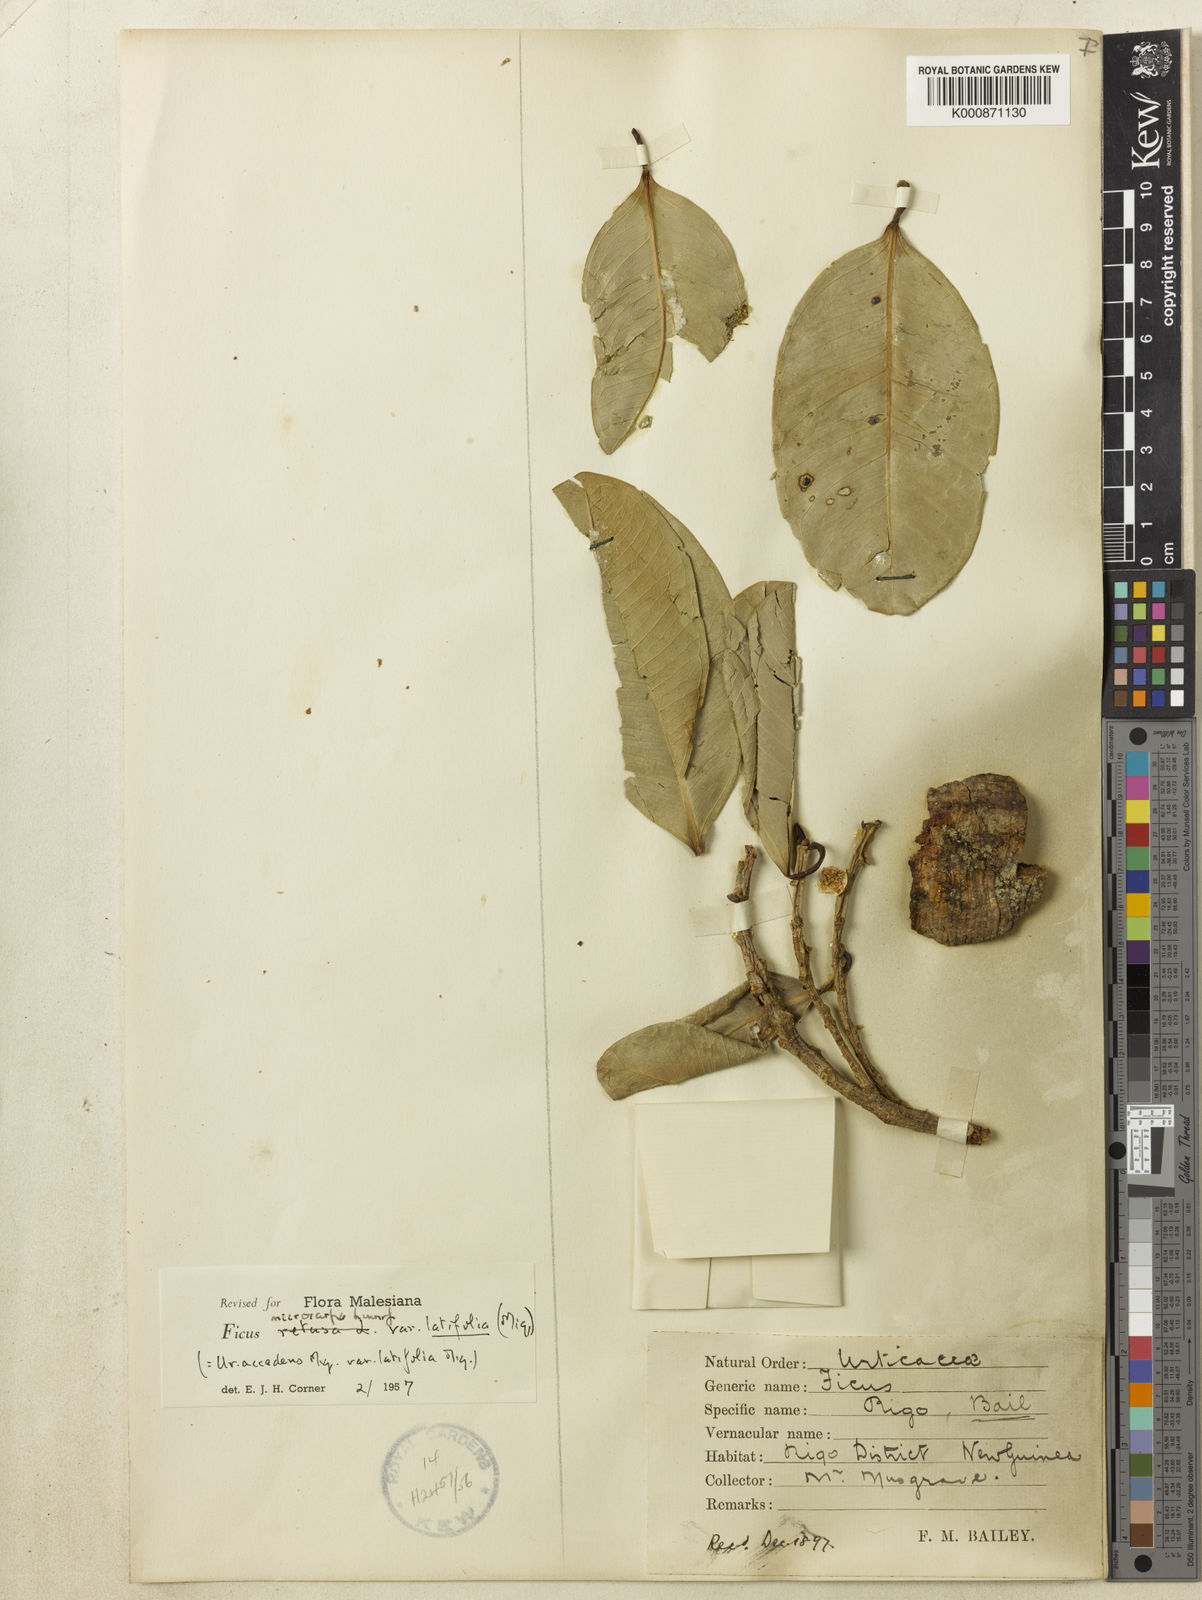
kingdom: Plantae
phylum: Tracheophyta
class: Magnoliopsida
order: Rosales
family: Moraceae
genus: Ficus
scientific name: Ficus microcarpa
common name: Chinese banyan
